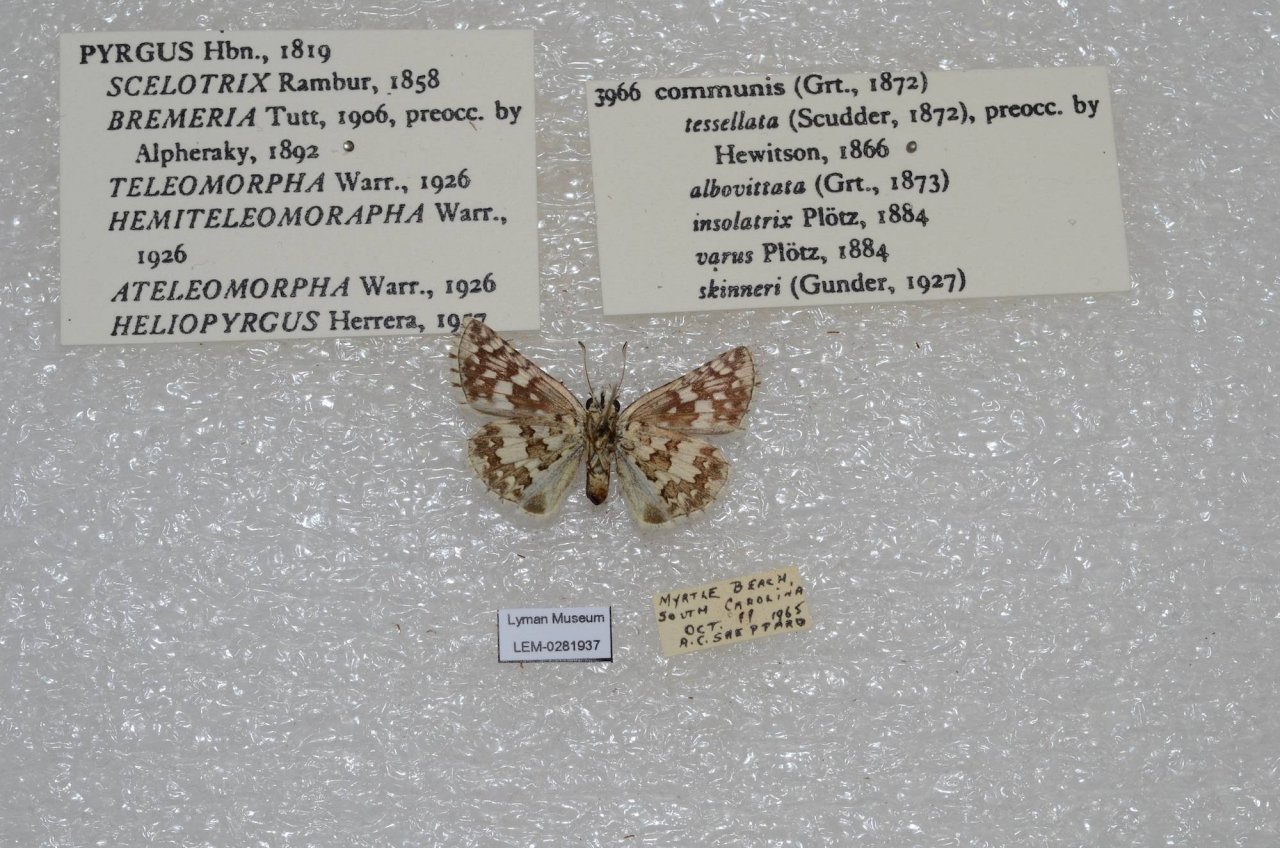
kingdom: Animalia
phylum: Arthropoda
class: Insecta
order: Lepidoptera
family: Hesperiidae
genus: Pyrgus
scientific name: Pyrgus communis
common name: Common Checkered-Skipper
